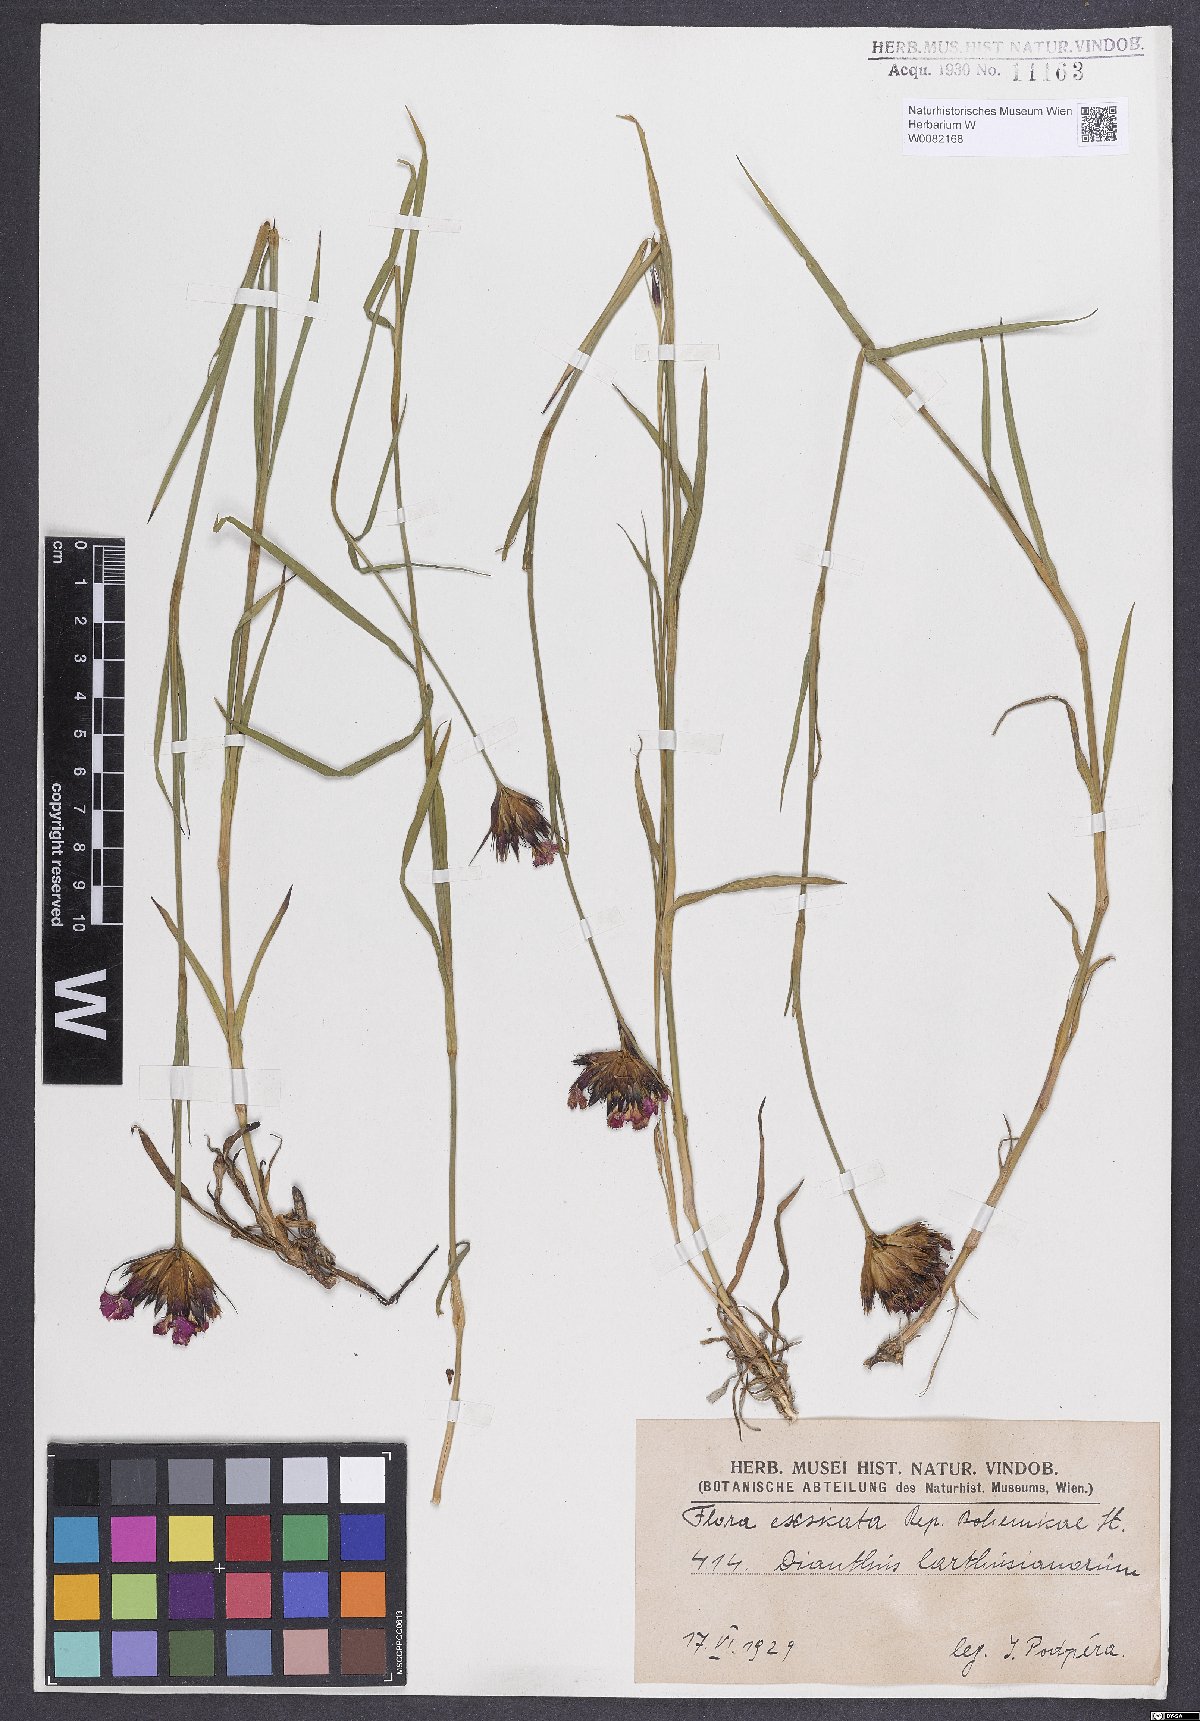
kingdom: Plantae
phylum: Tracheophyta
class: Magnoliopsida
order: Caryophyllales
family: Caryophyllaceae
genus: Dianthus
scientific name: Dianthus carthusianorum
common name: Carthusian pink
